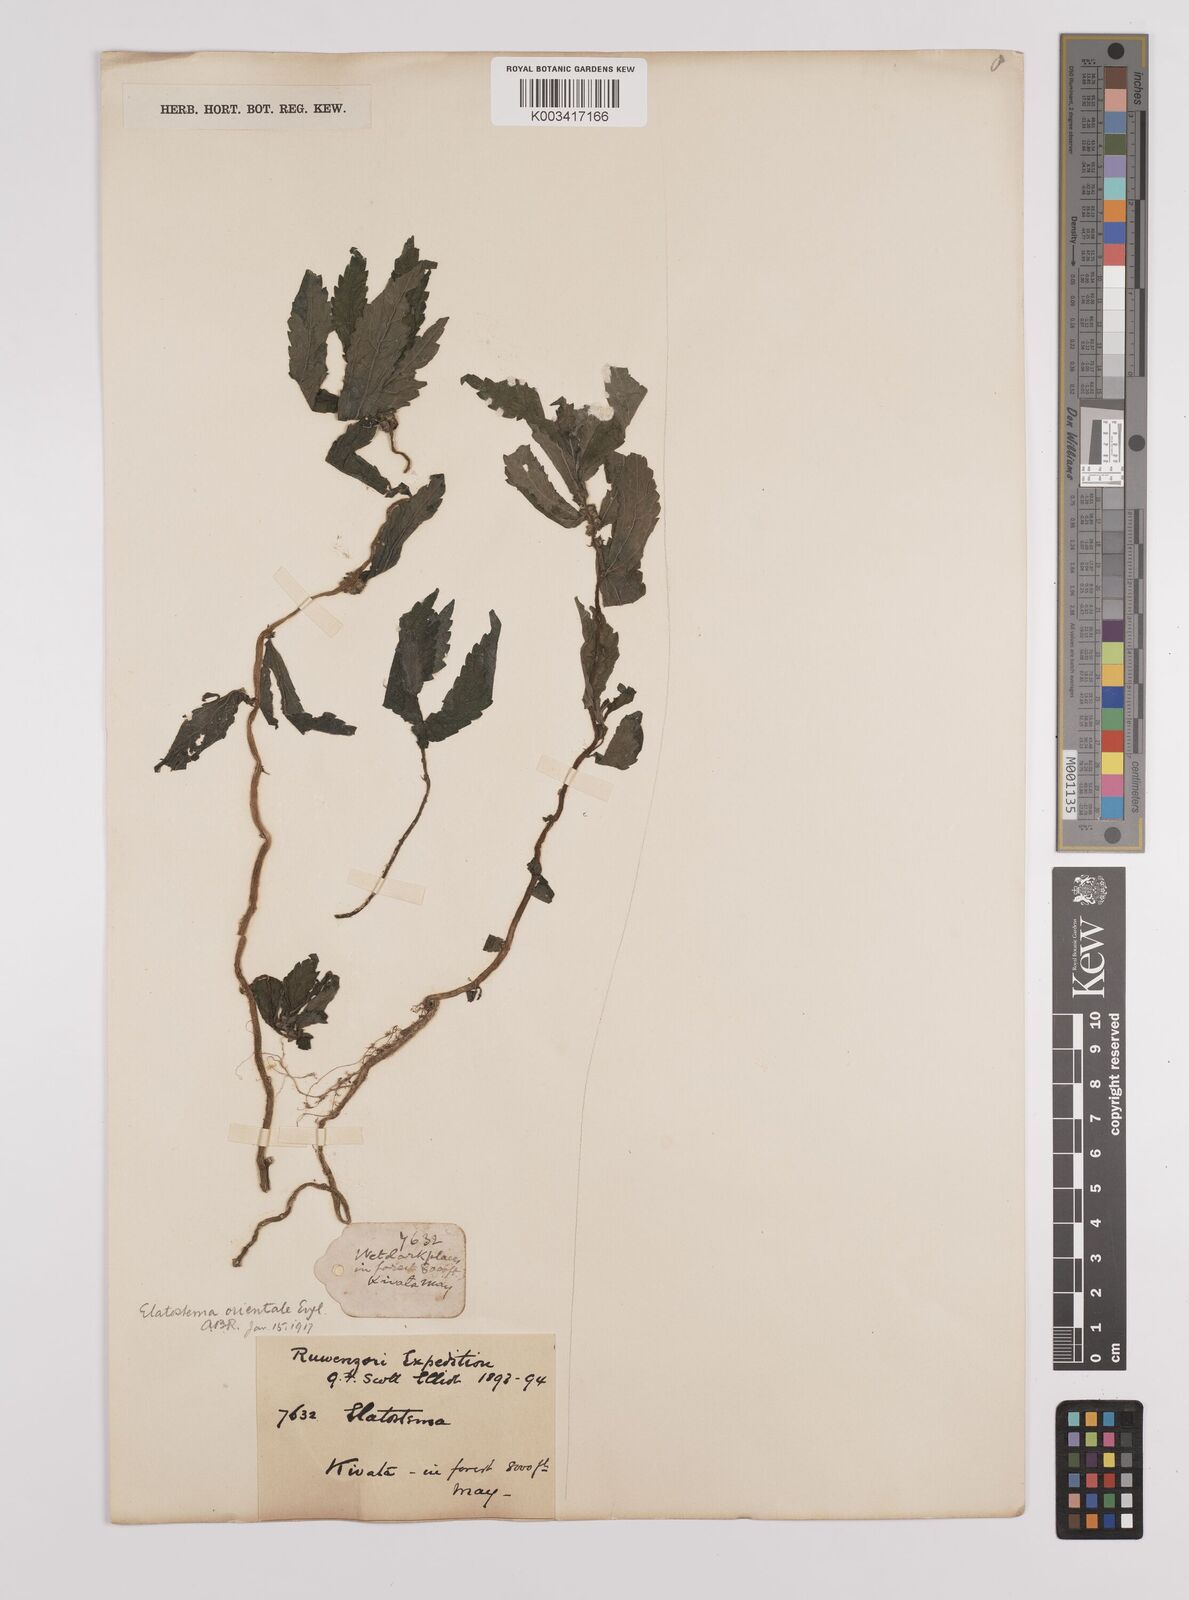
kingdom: Plantae
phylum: Tracheophyta
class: Magnoliopsida
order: Rosales
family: Urticaceae
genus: Elatostema
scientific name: Elatostema monticola
